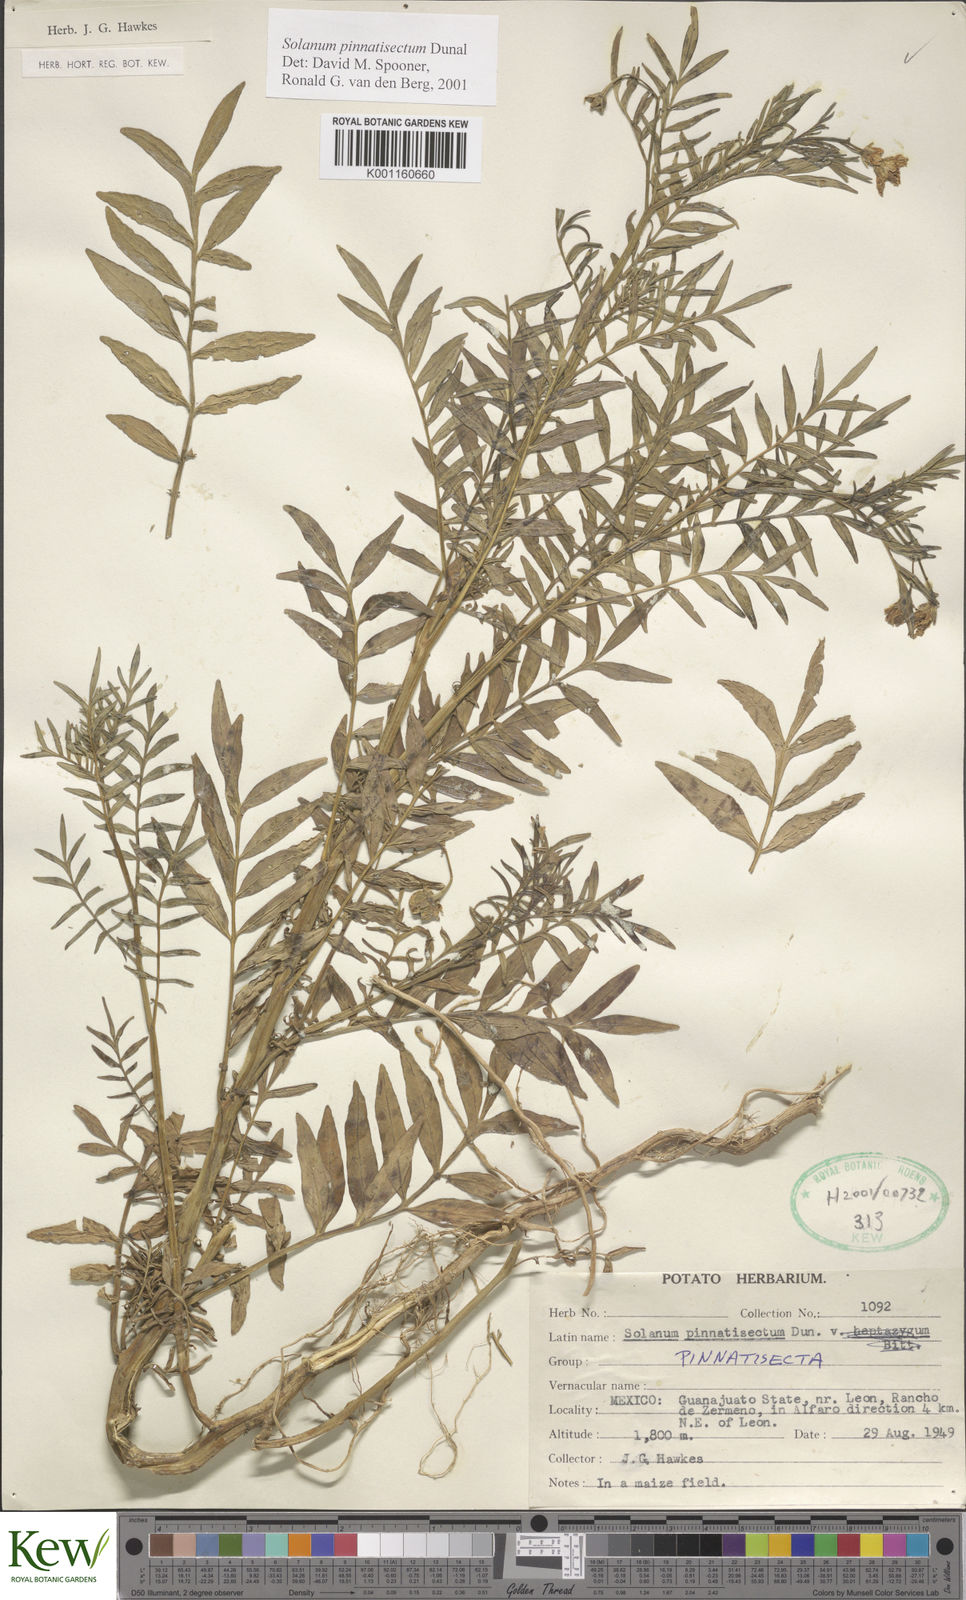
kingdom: Plantae
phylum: Tracheophyta
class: Magnoliopsida
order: Solanales
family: Solanaceae
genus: Solanum
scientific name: Solanum pinnatisectum
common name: Tansyleaf nightshade
